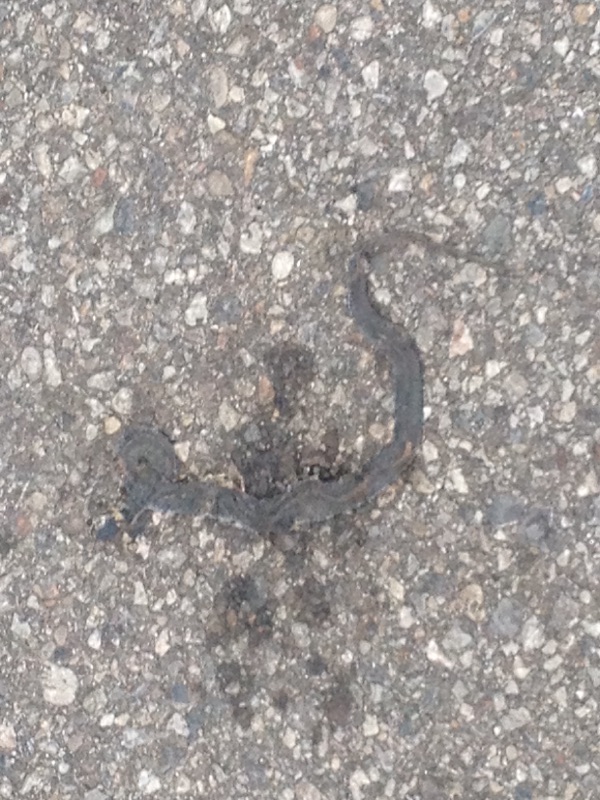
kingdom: Animalia
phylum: Chordata
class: Squamata
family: Colubridae
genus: Natrix
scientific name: Natrix natrix
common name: Grass snake
